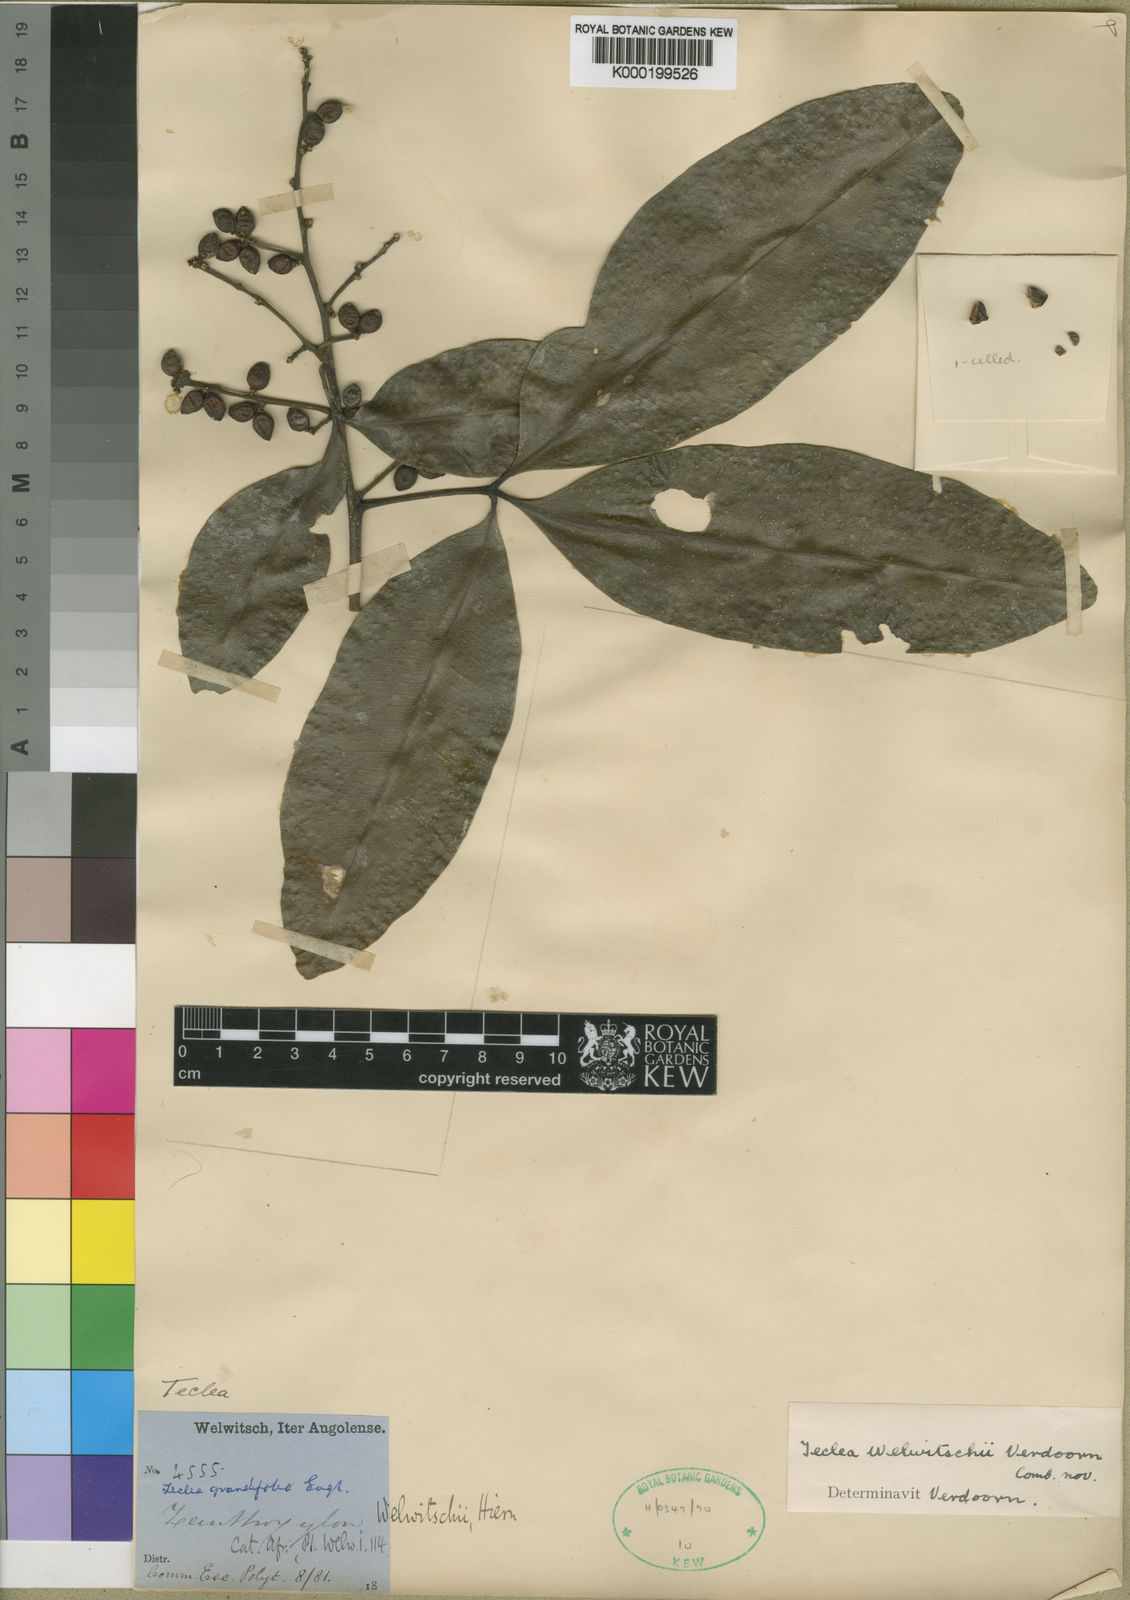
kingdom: Plantae
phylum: Tracheophyta
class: Magnoliopsida
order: Sapindales
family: Rutaceae
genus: Vepris
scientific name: Vepris grandifolia
